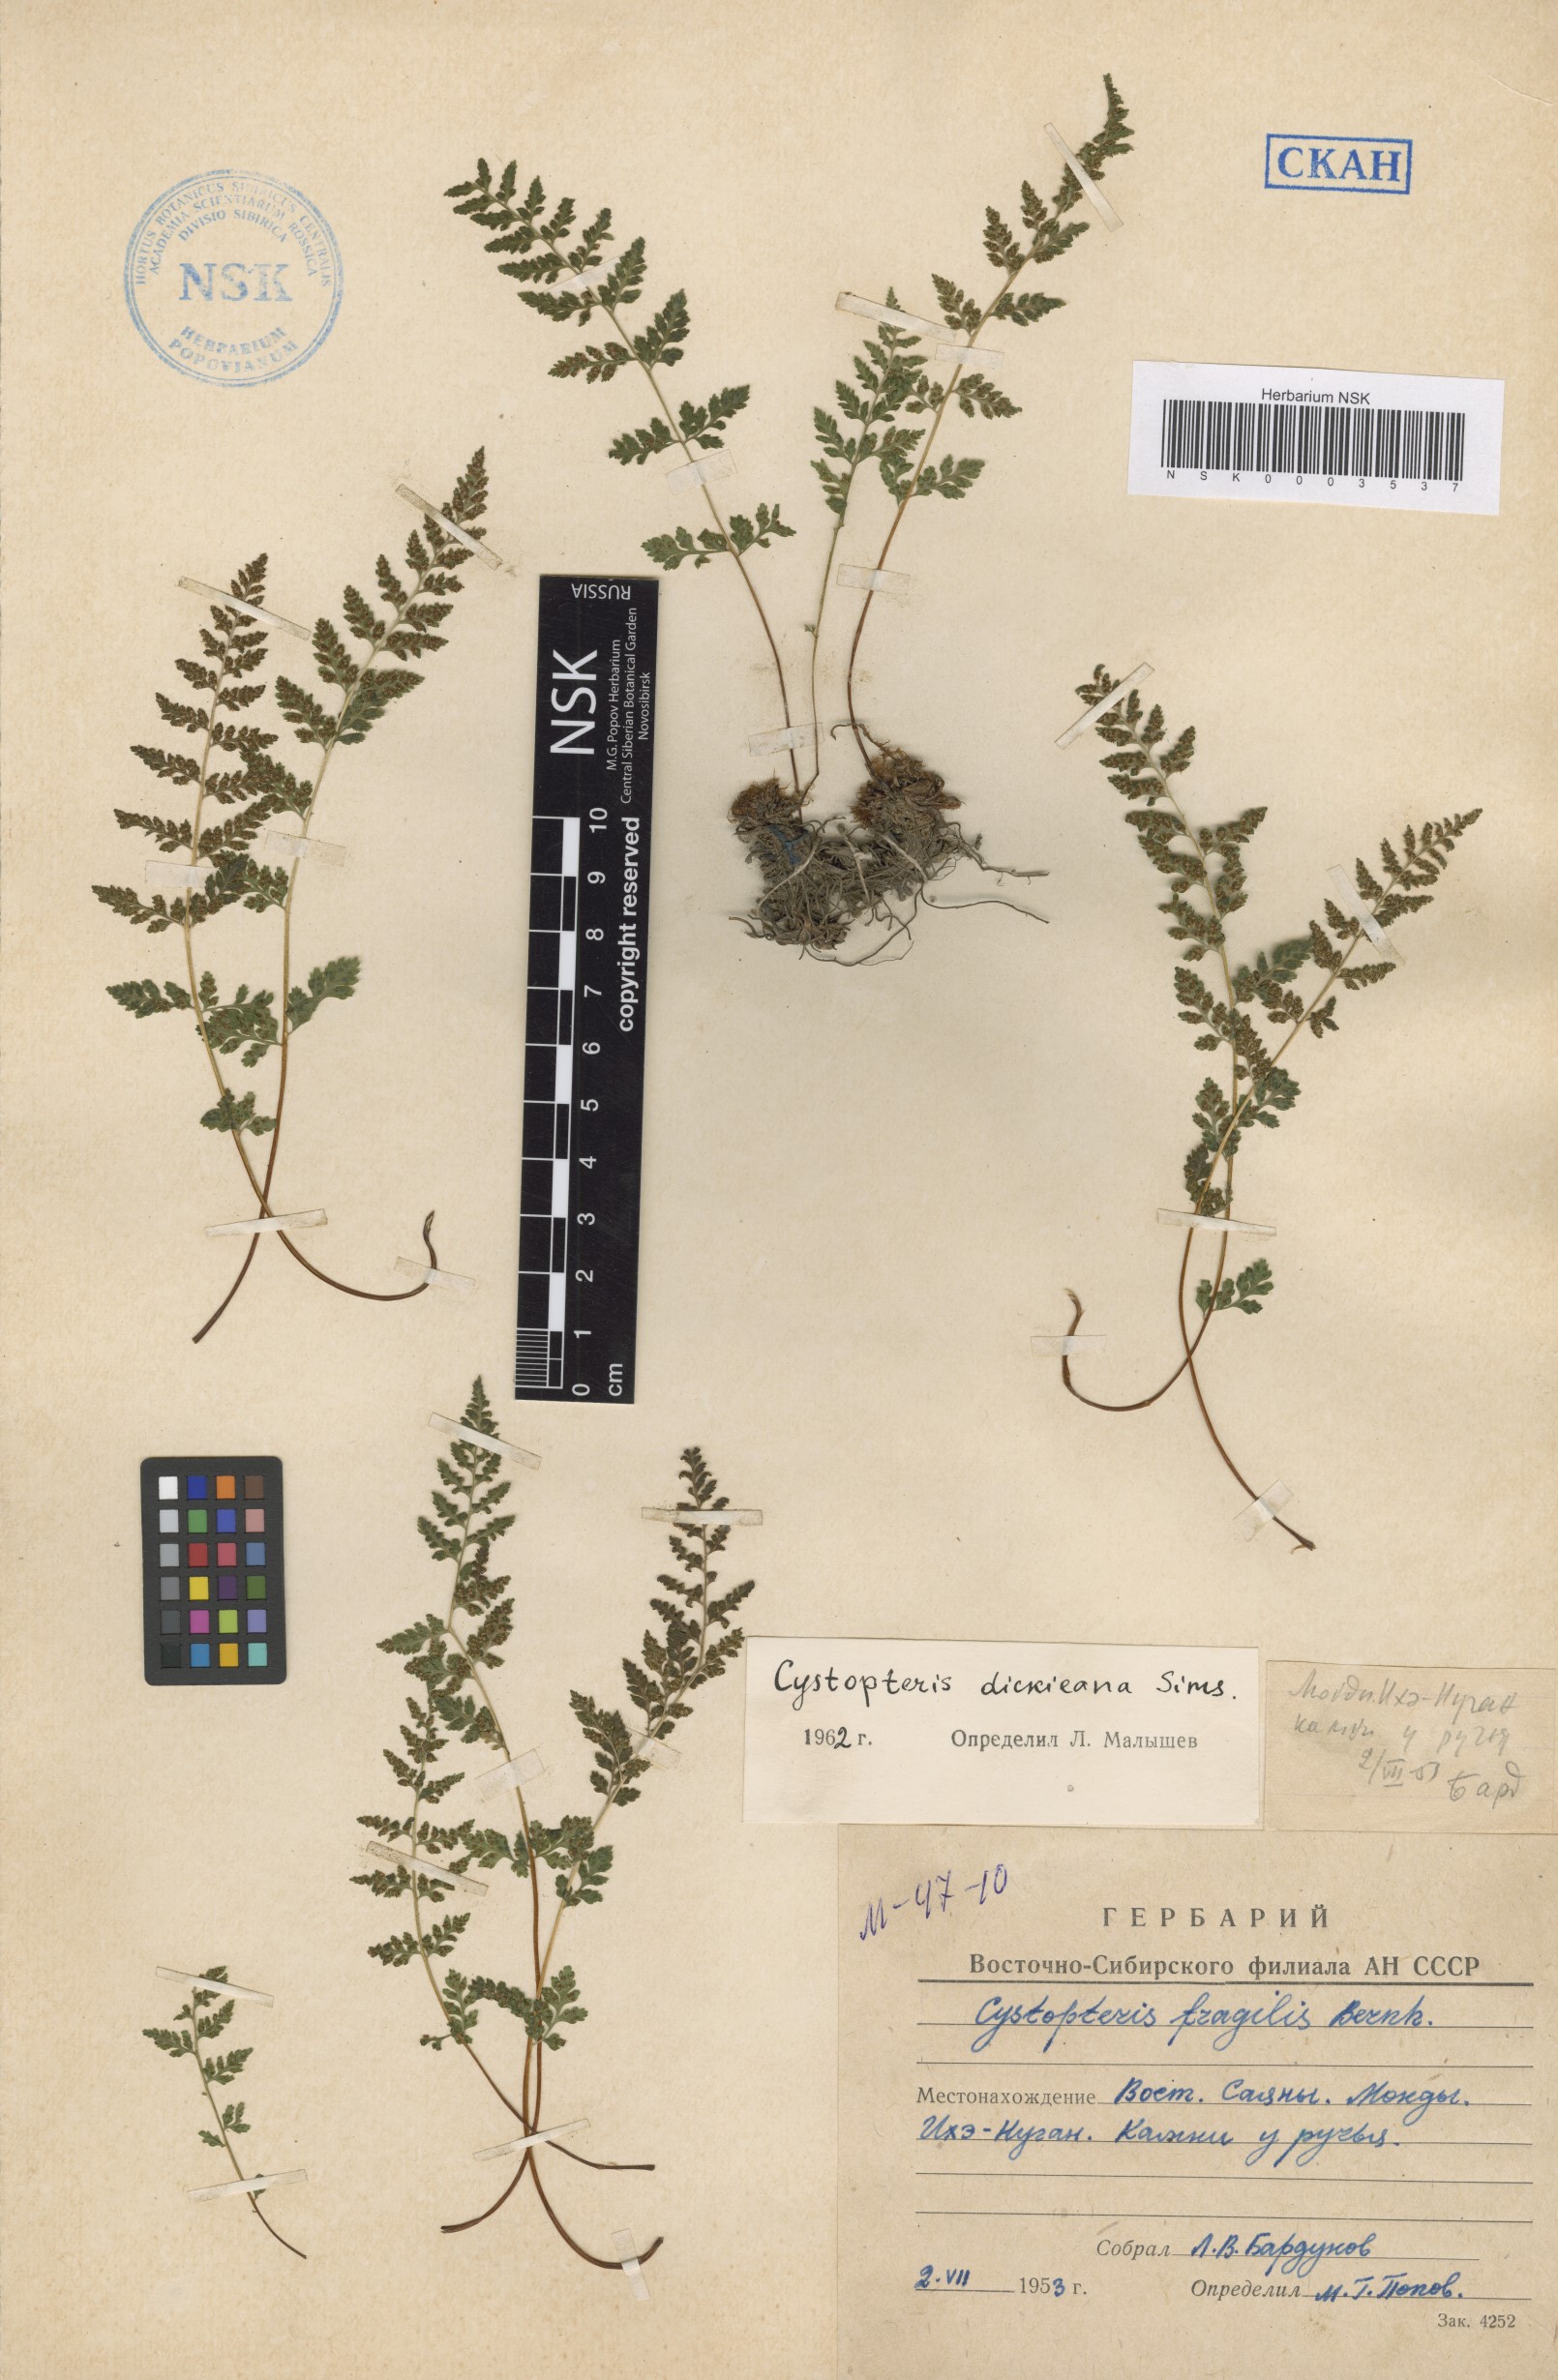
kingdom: Plantae
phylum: Tracheophyta
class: Polypodiopsida
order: Polypodiales
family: Cystopteridaceae
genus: Cystopteris
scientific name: Cystopteris dickieana
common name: Dickie's bladder-fern
